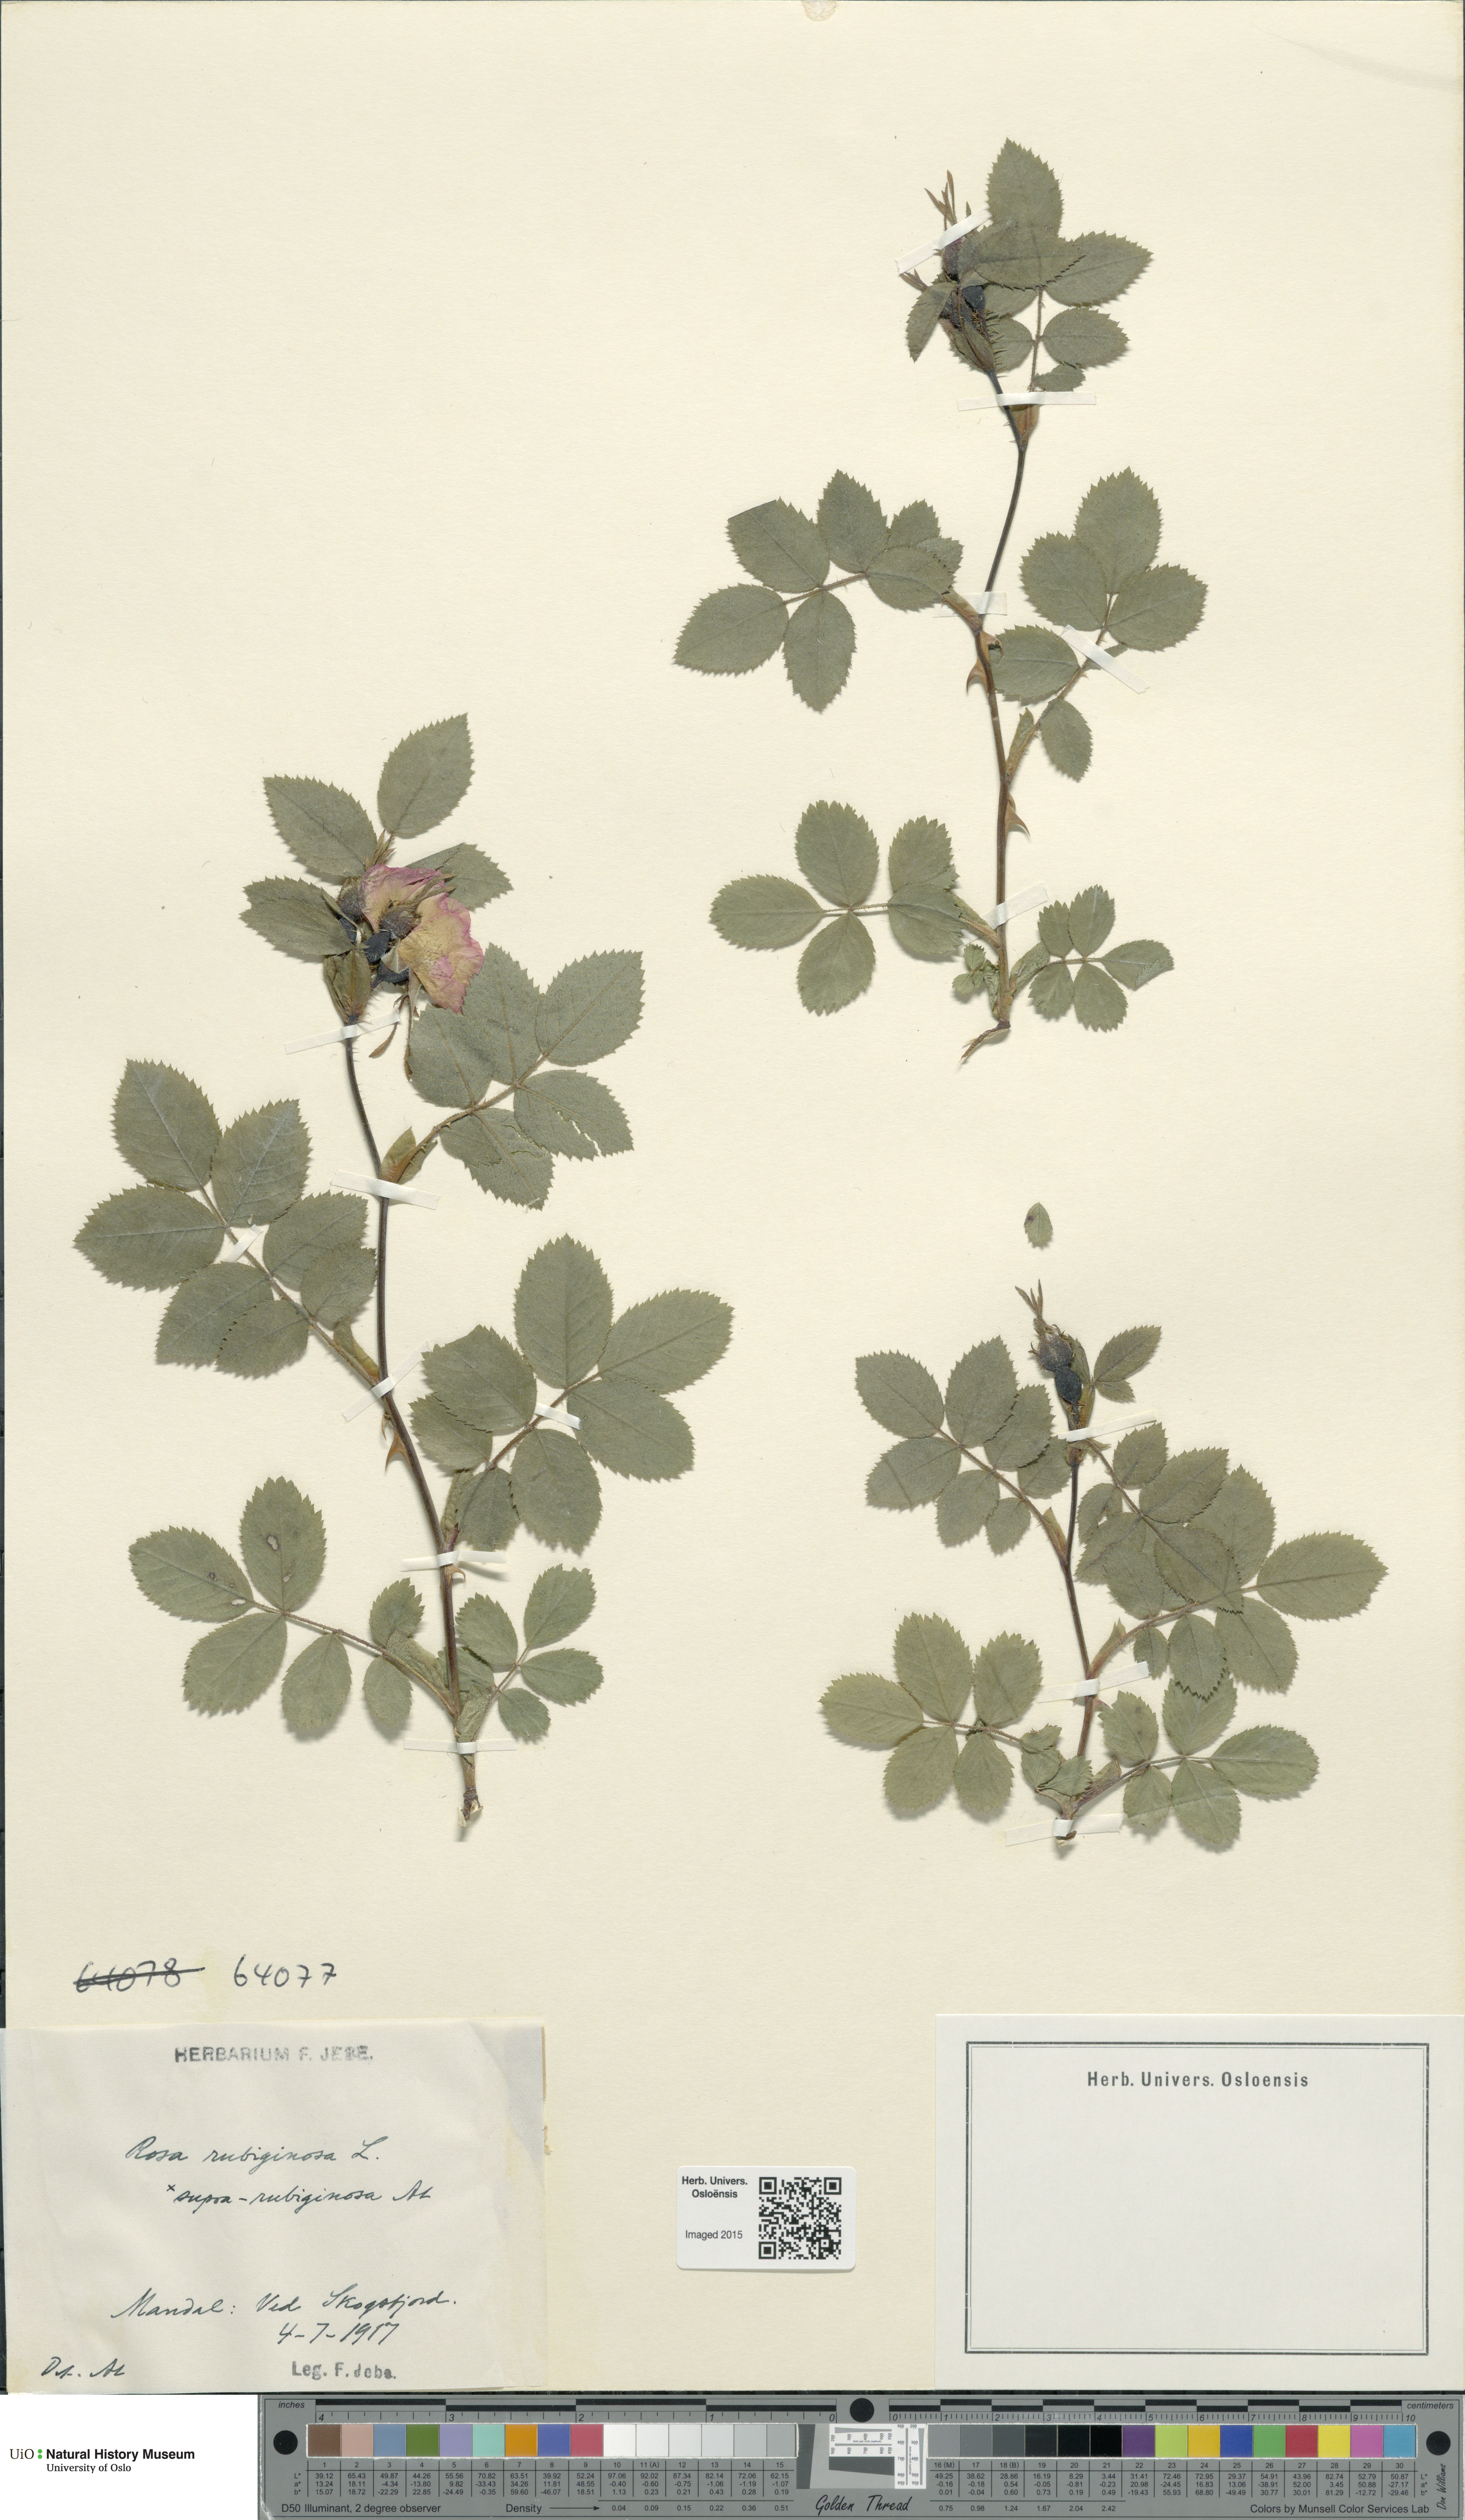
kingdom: Plantae
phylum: Tracheophyta
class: Magnoliopsida
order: Rosales
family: Rosaceae
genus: Rosa
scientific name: Rosa rubiginosa
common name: Sweet-briar
